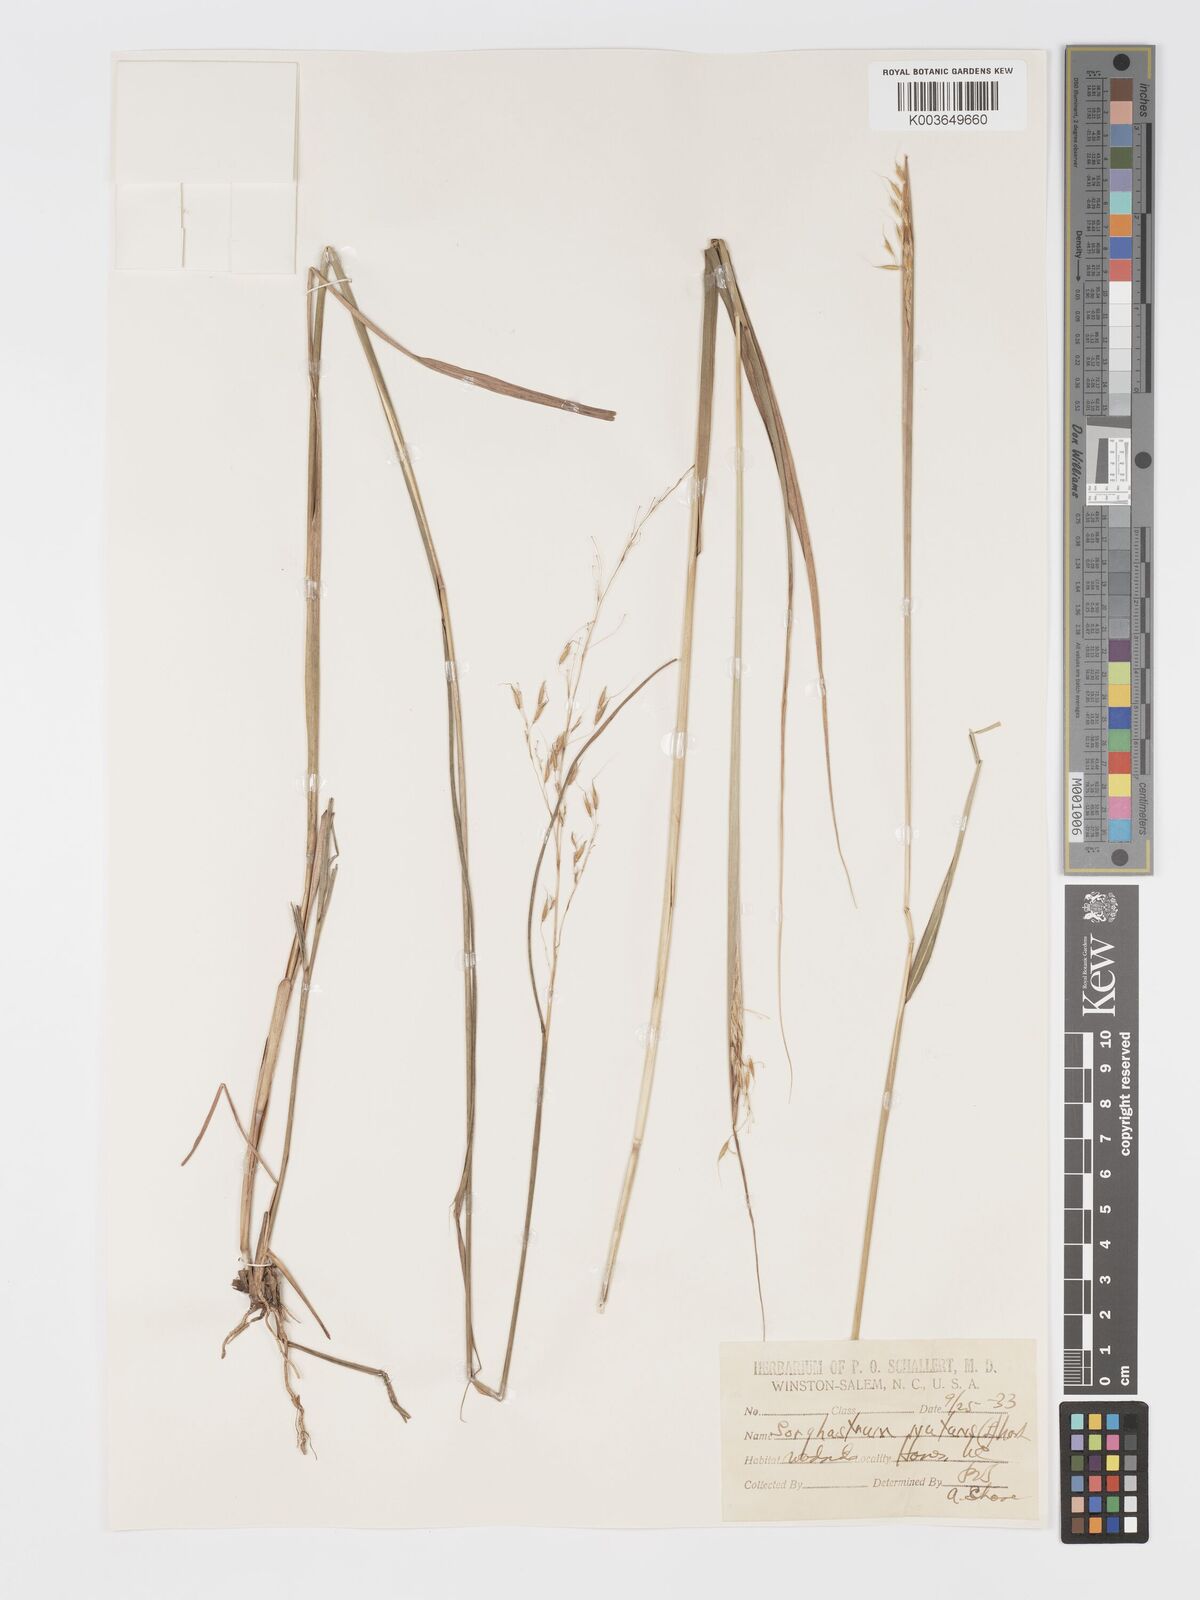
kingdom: Plantae
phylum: Tracheophyta
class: Liliopsida
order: Poales
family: Poaceae
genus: Sorghastrum
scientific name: Sorghastrum nutans
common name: Indian grass
